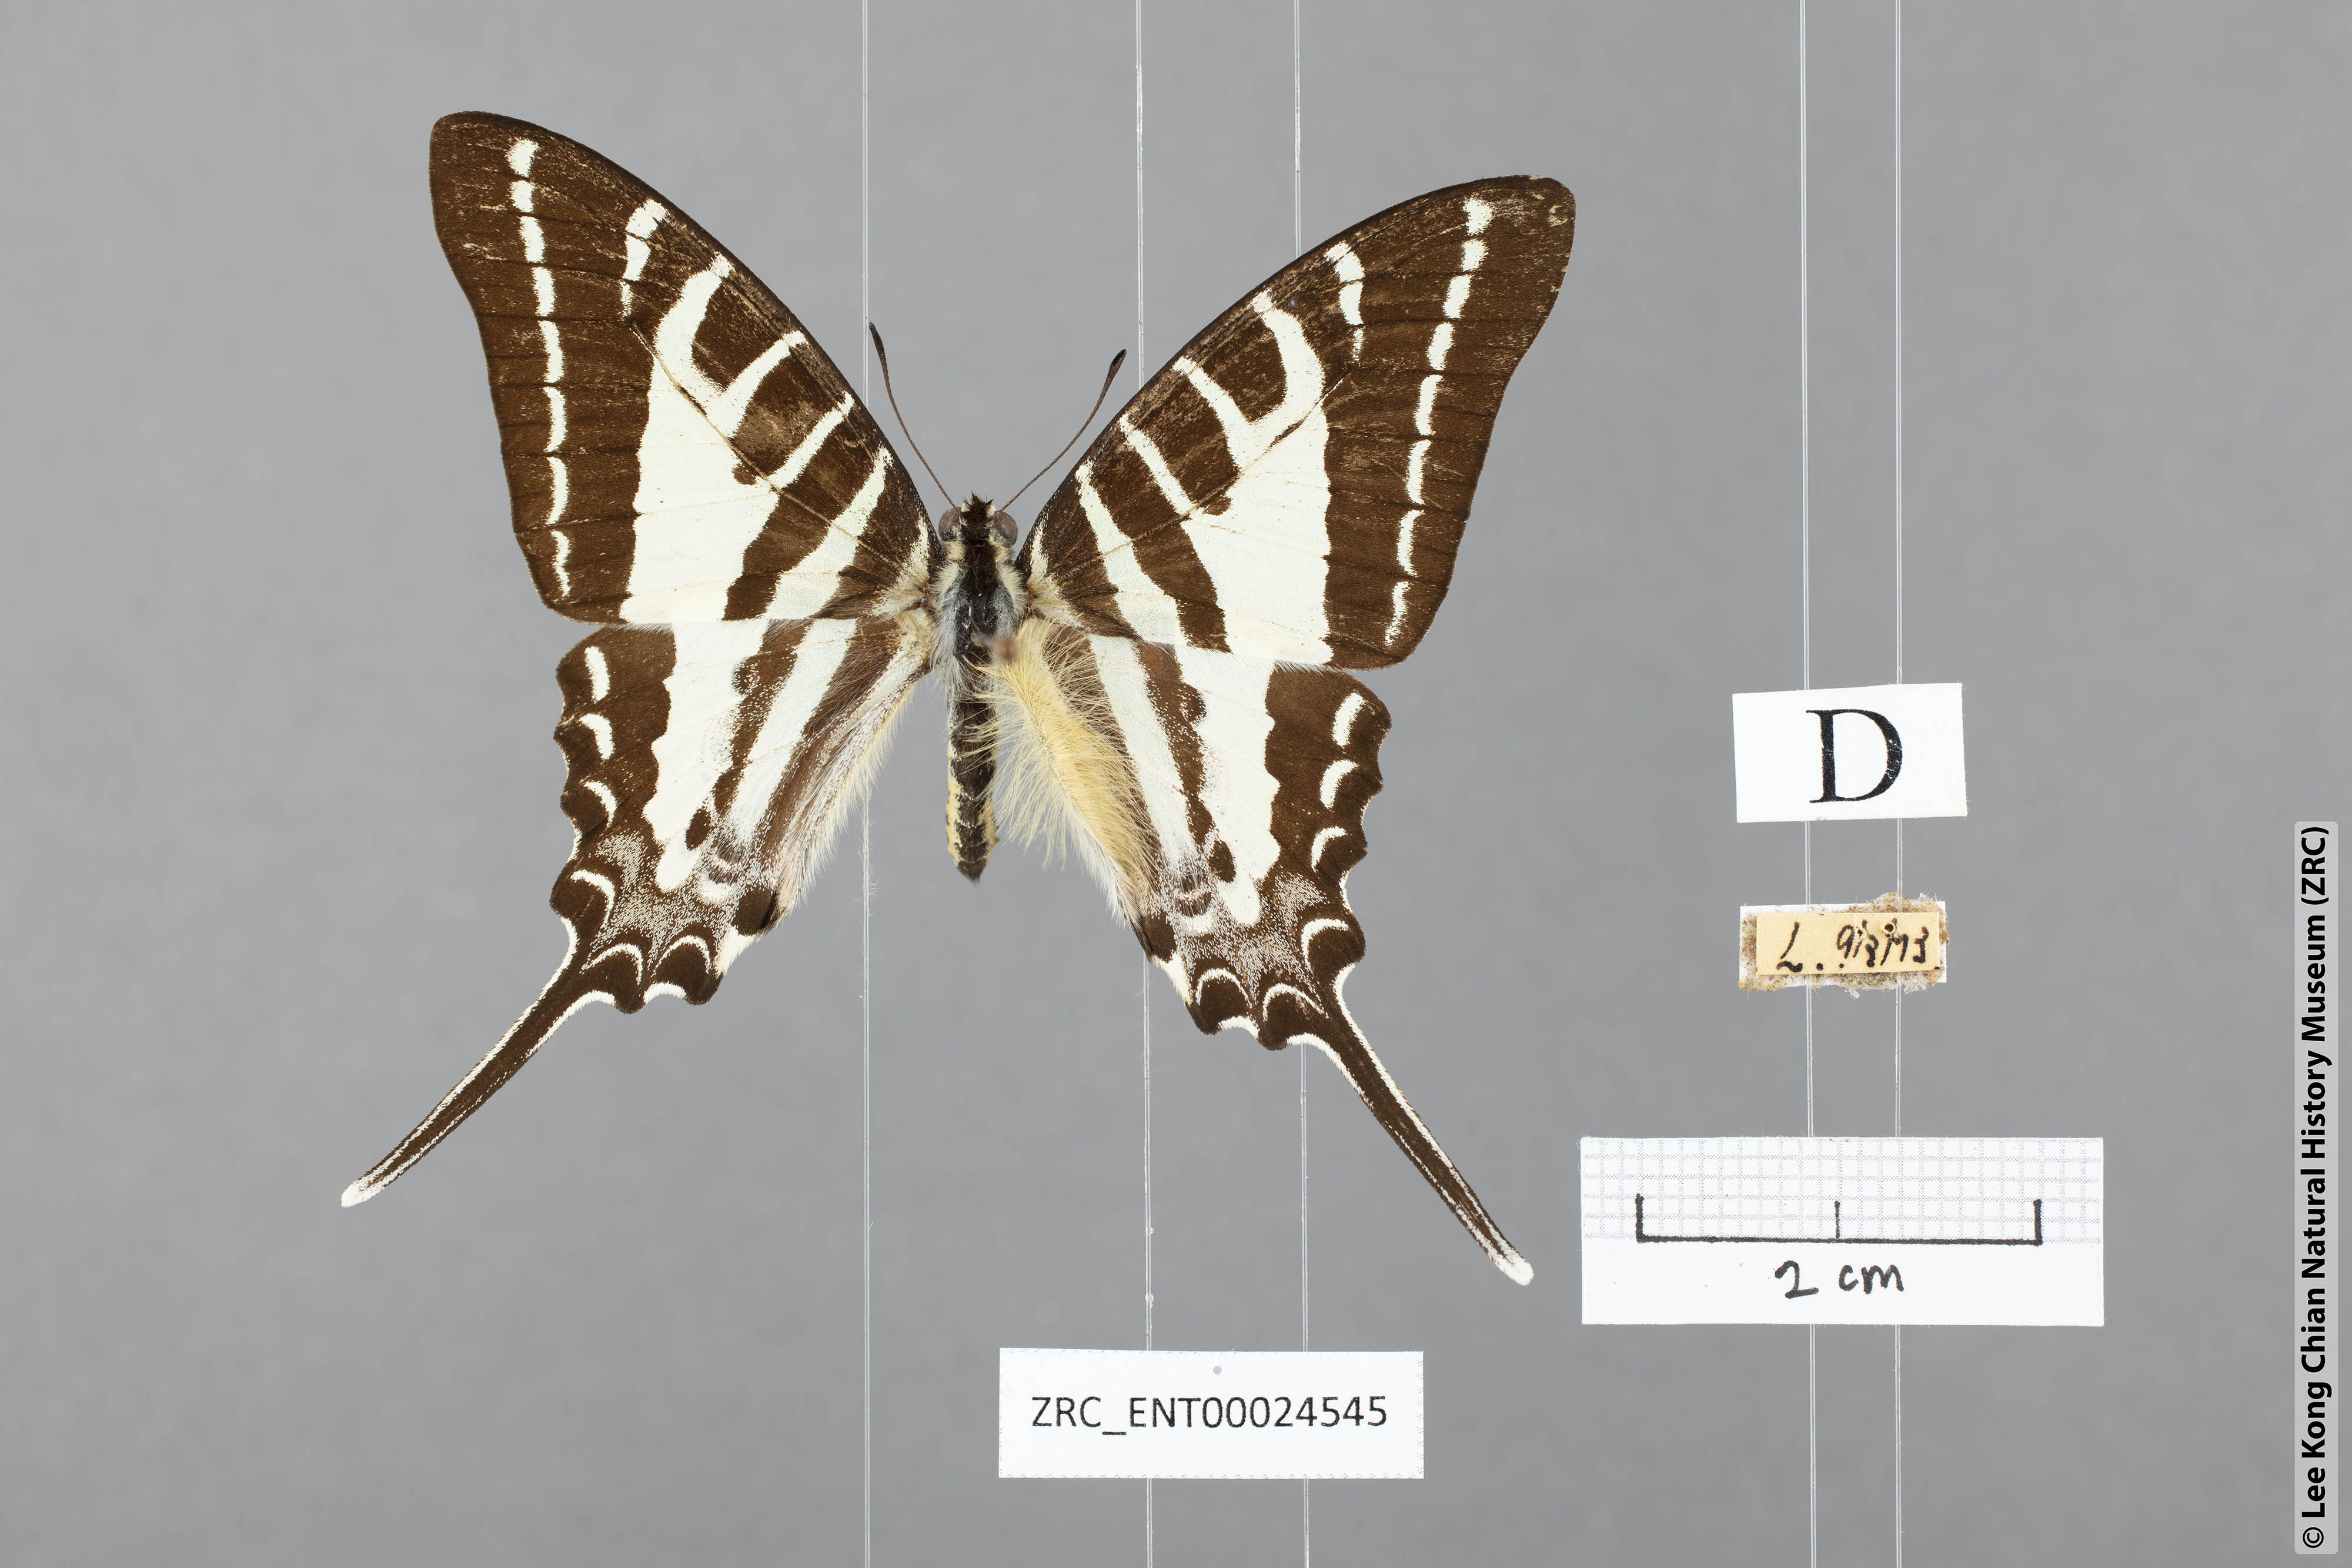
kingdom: Animalia
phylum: Arthropoda
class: Insecta
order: Lepidoptera
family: Papilionidae
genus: Graphium
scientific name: Graphium aristeus
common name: Chain swordtail
